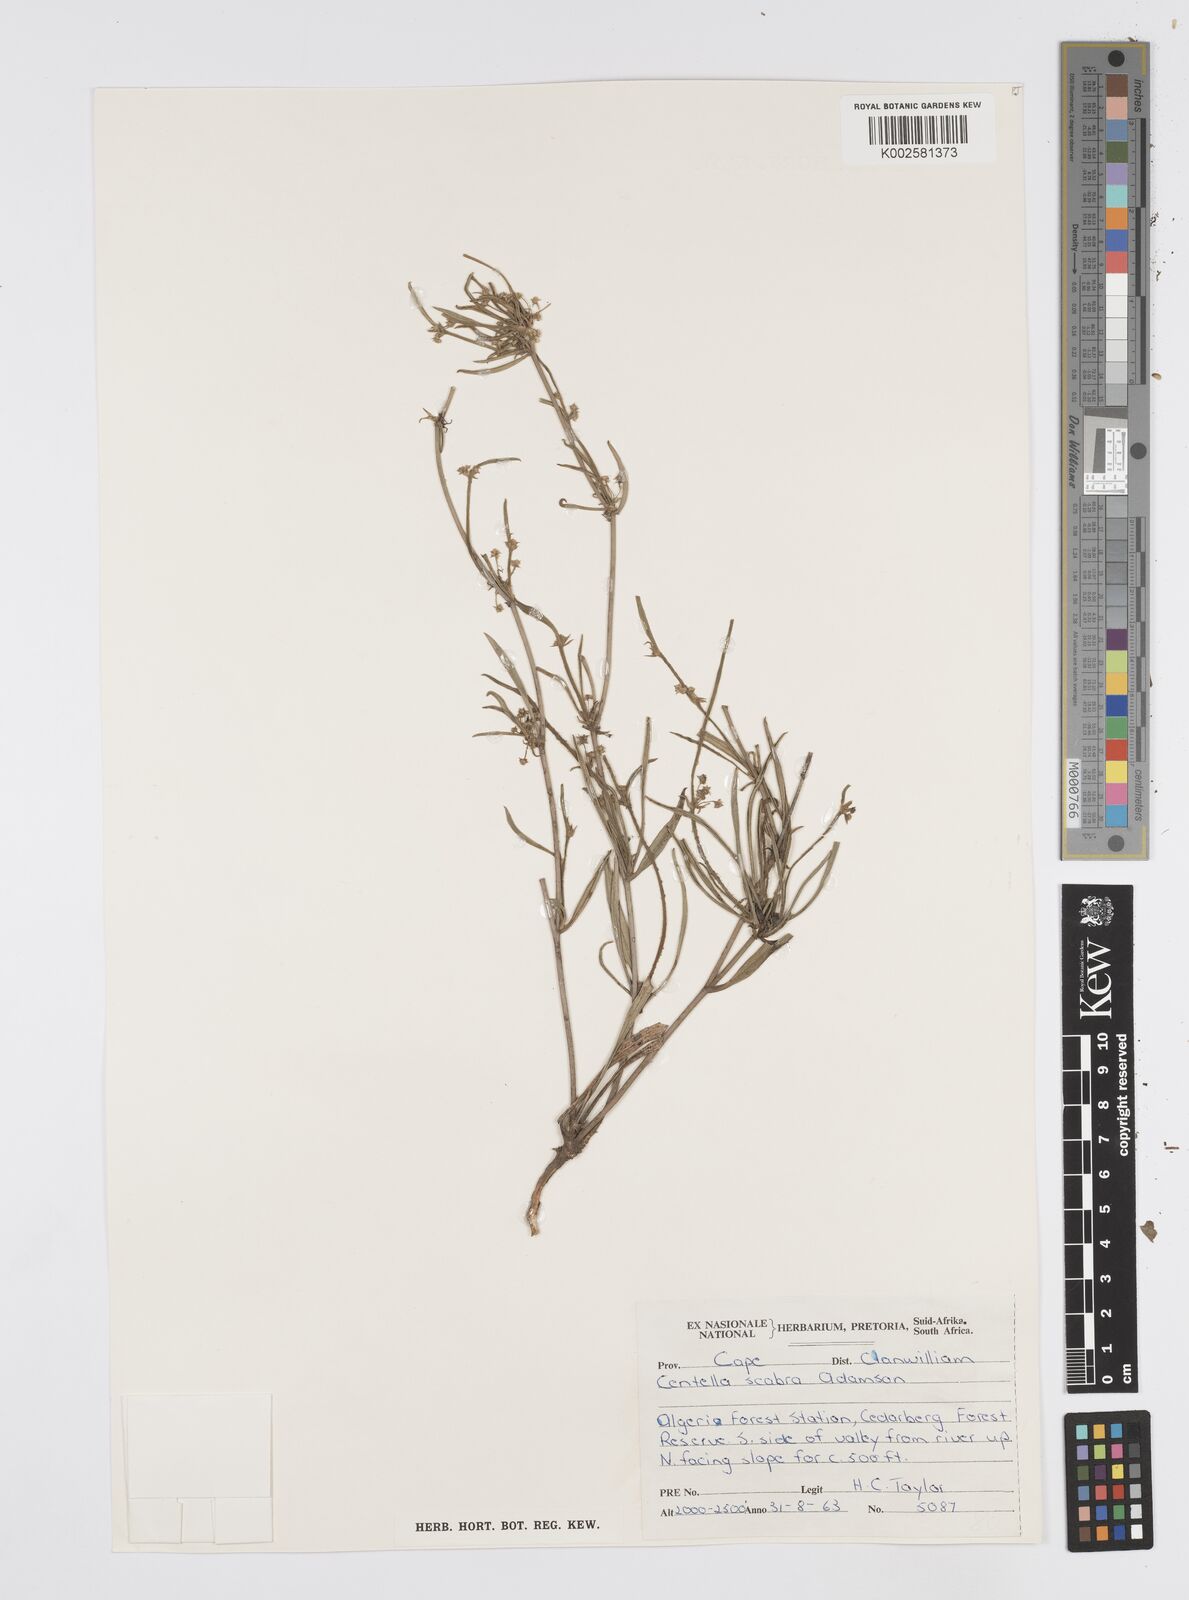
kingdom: Plantae
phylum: Tracheophyta
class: Magnoliopsida
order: Apiales
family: Apiaceae
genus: Centella
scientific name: Centella
